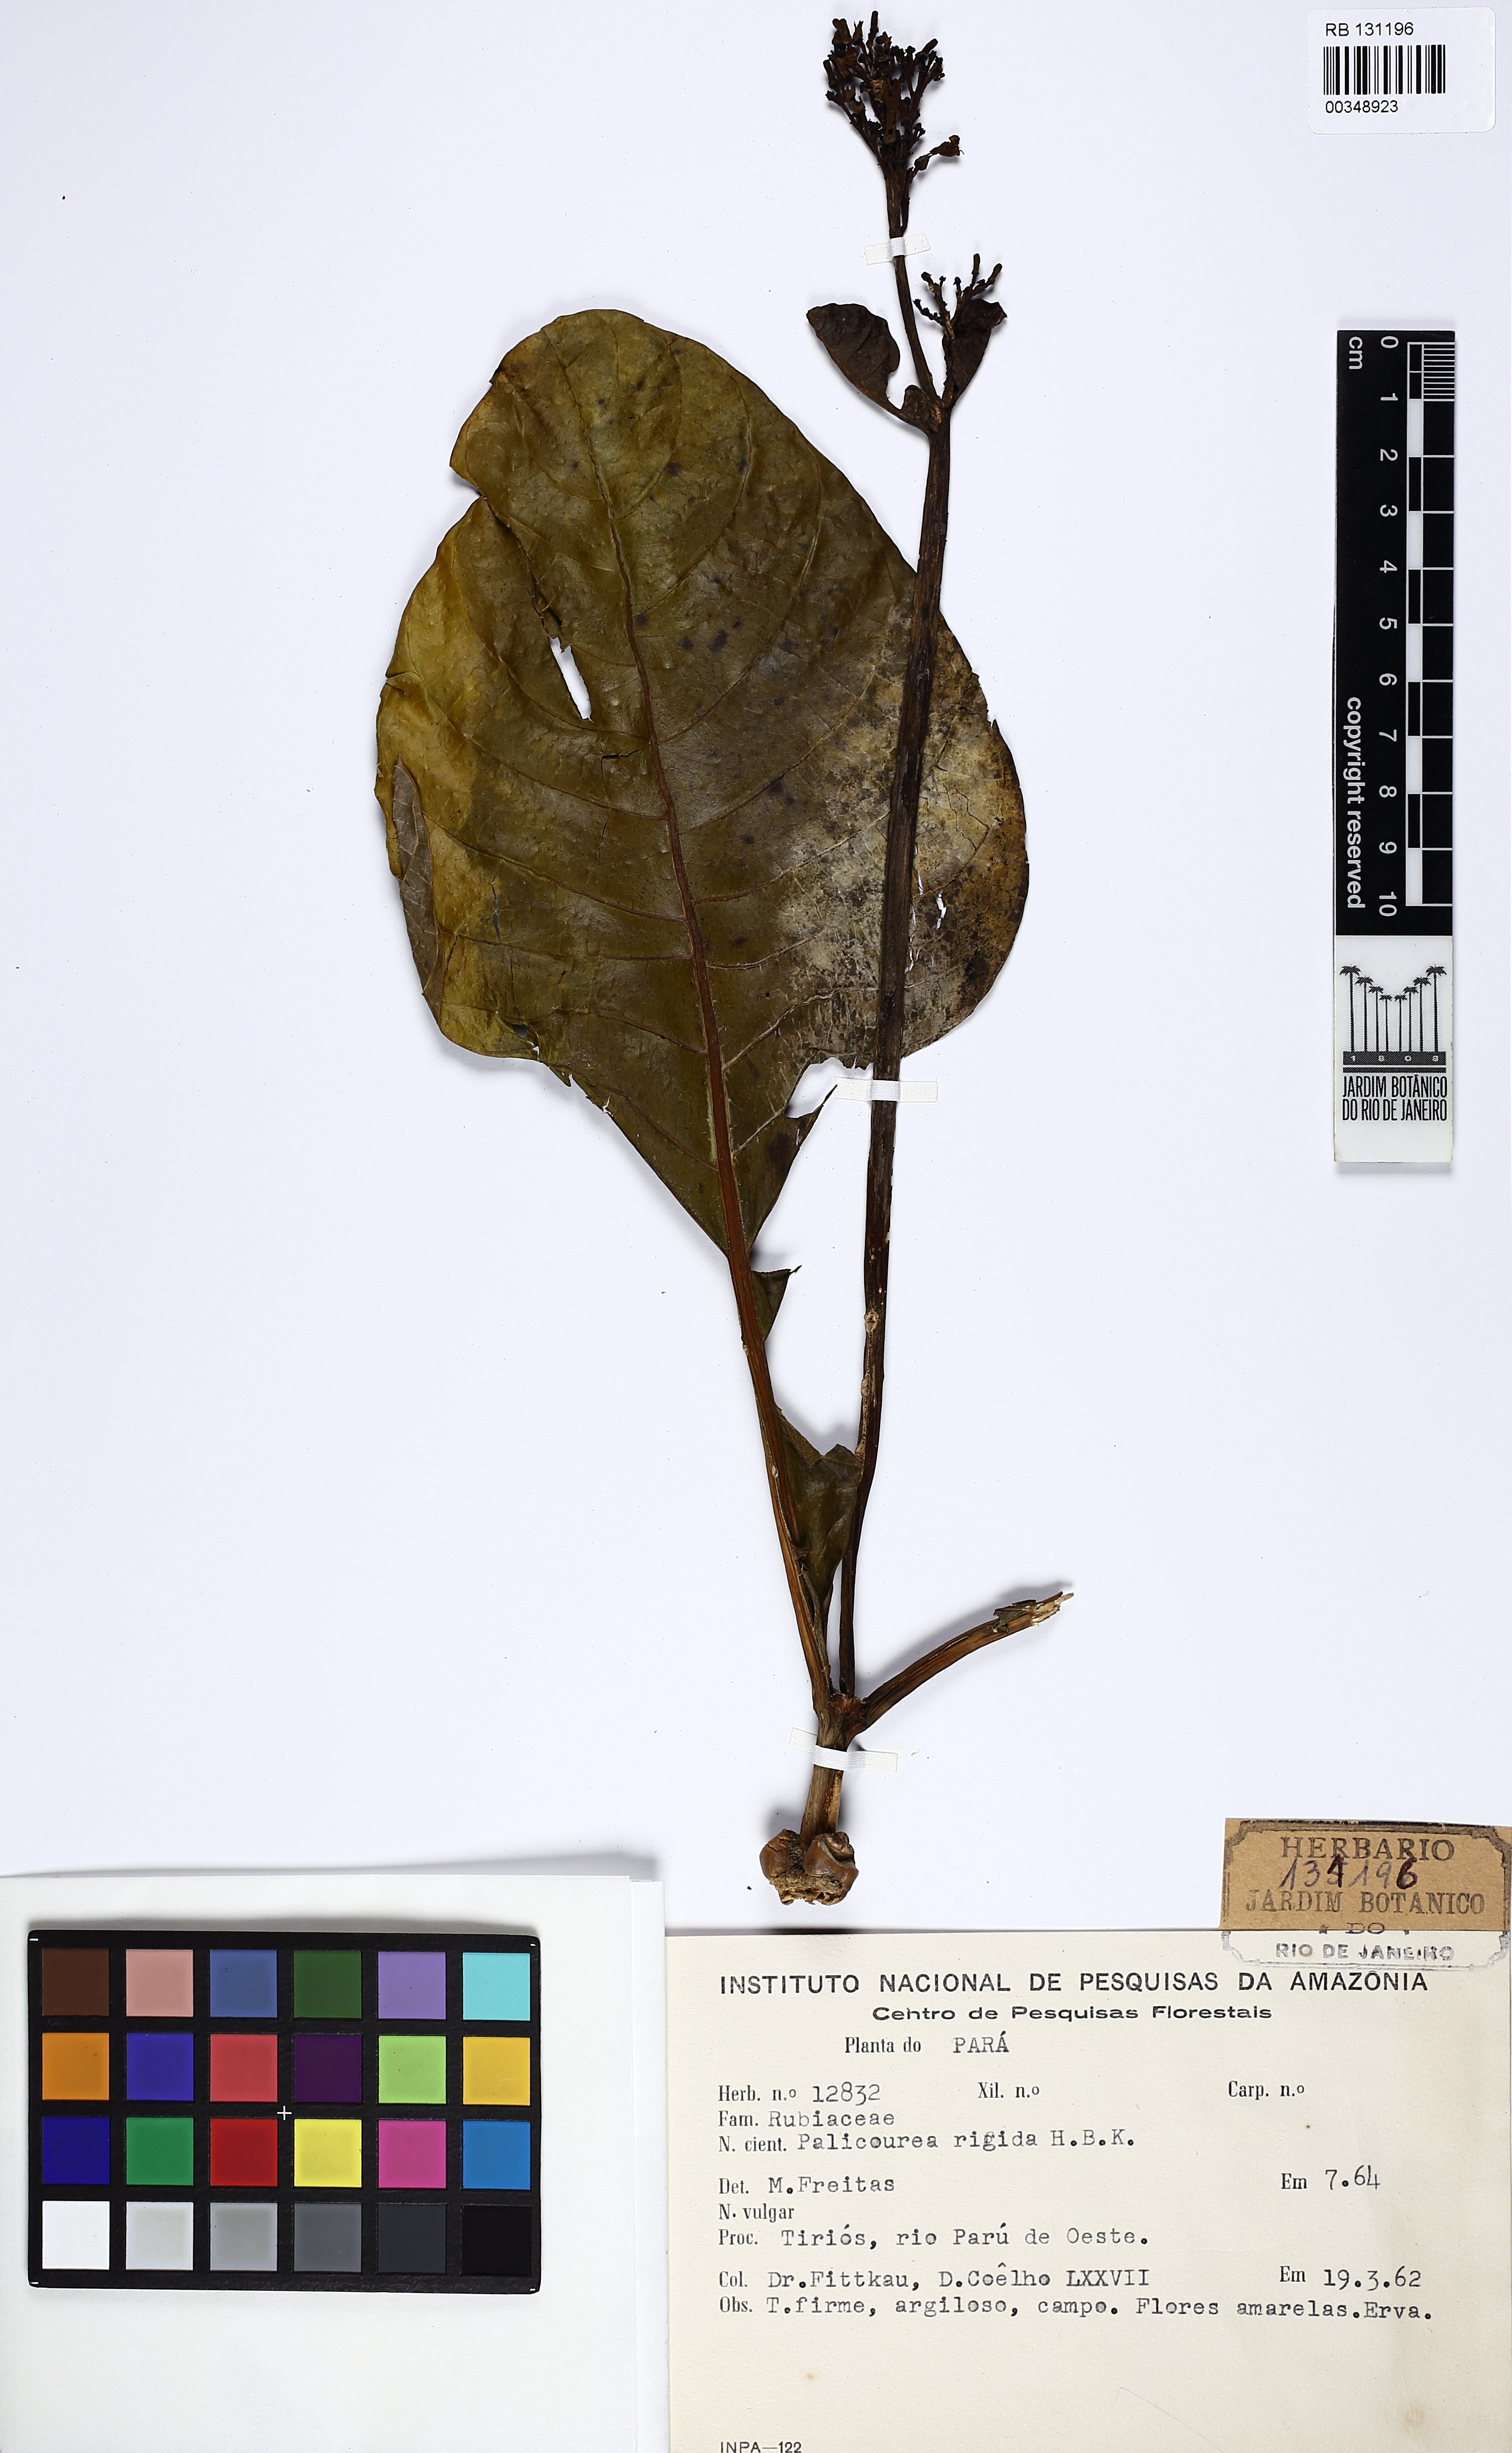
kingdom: Plantae
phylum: Tracheophyta
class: Magnoliopsida
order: Gentianales
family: Rubiaceae
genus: Palicourea
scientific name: Palicourea rigida
